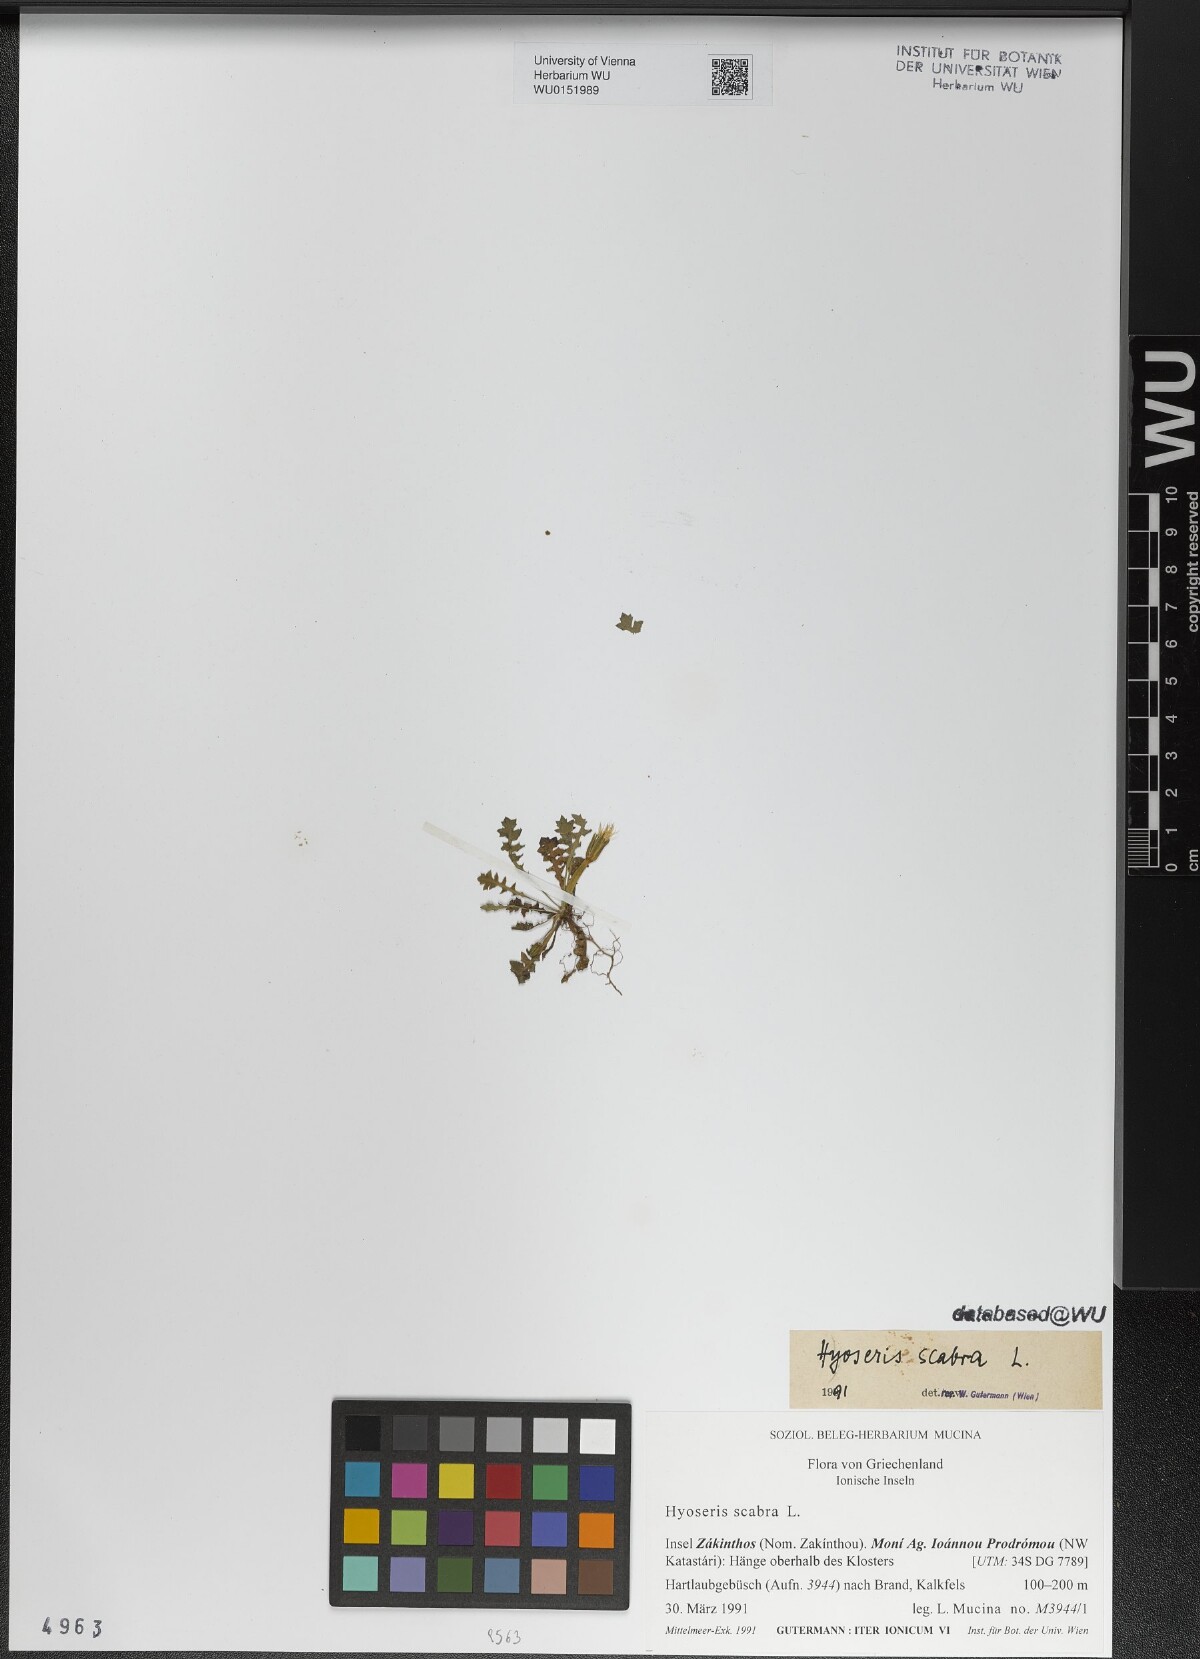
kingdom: Plantae
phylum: Tracheophyta
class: Magnoliopsida
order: Asterales
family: Asteraceae
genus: Hyoseris
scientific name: Hyoseris scabra
